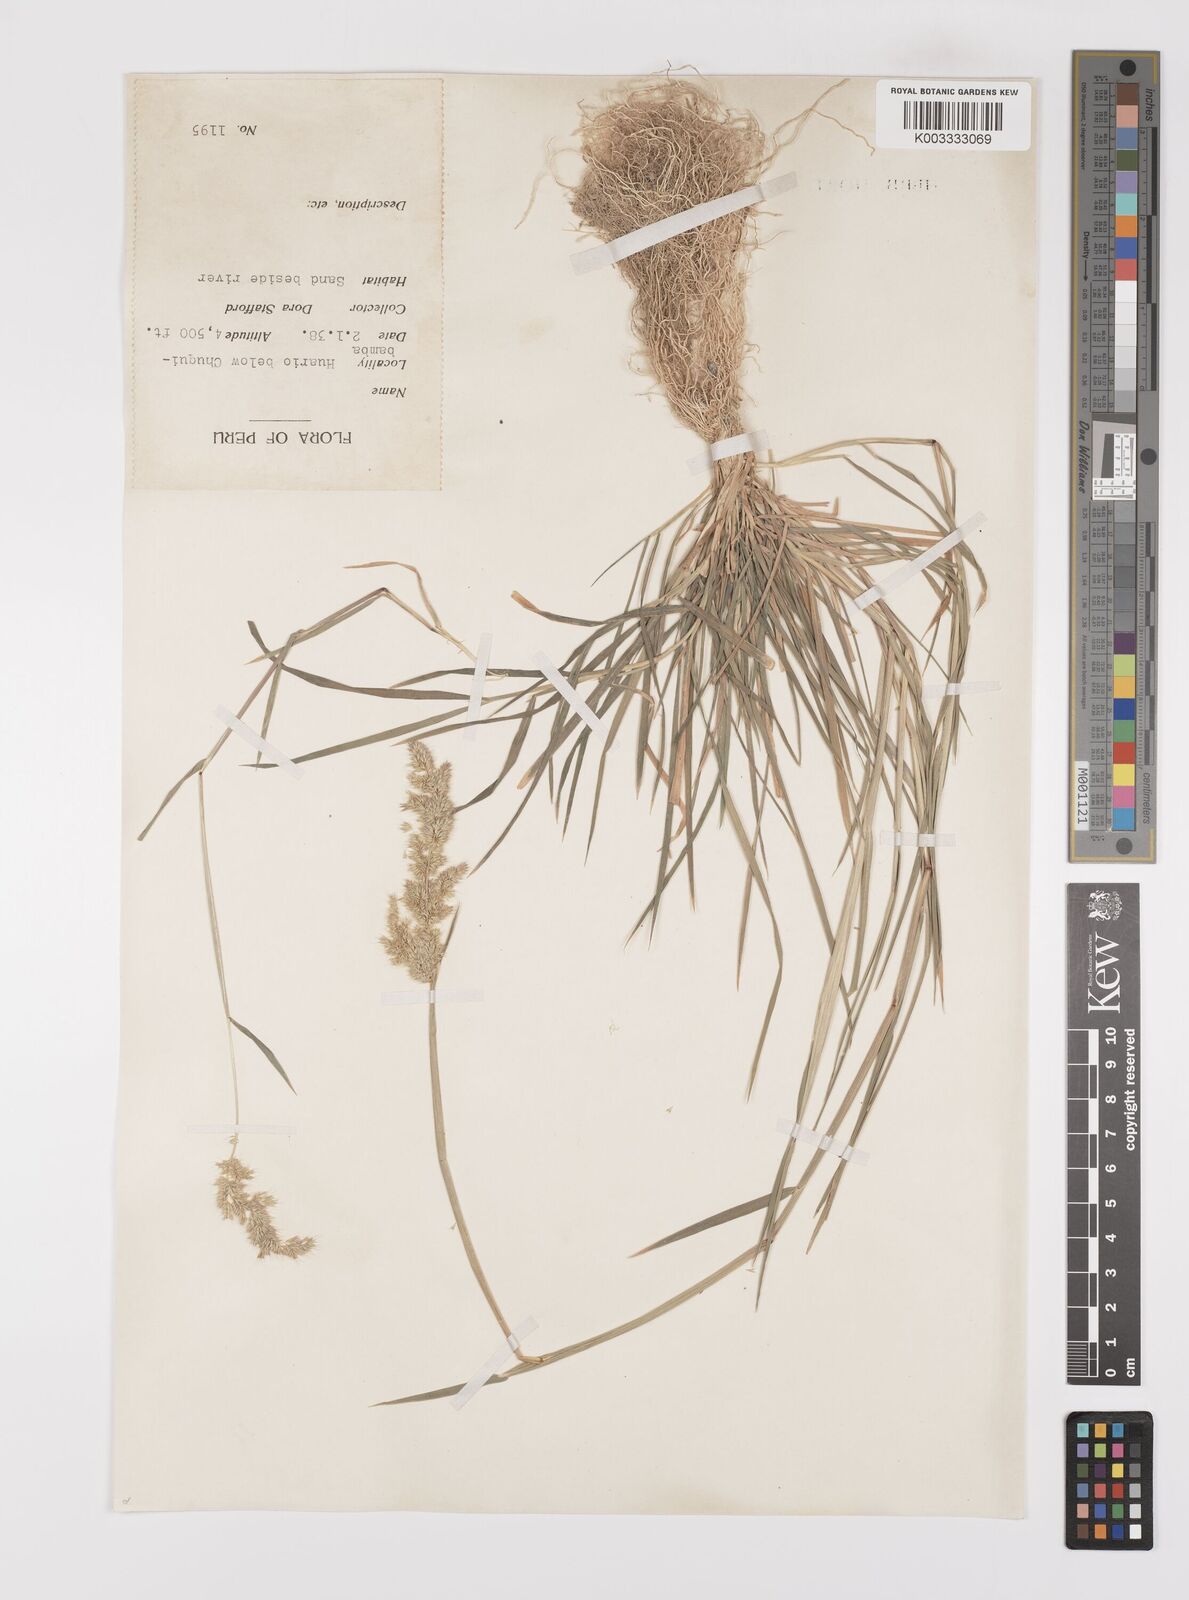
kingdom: Plantae
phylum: Tracheophyta
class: Liliopsida
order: Poales
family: Poaceae
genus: Polypogon
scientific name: Polypogon interruptus
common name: Ditch polypogon
